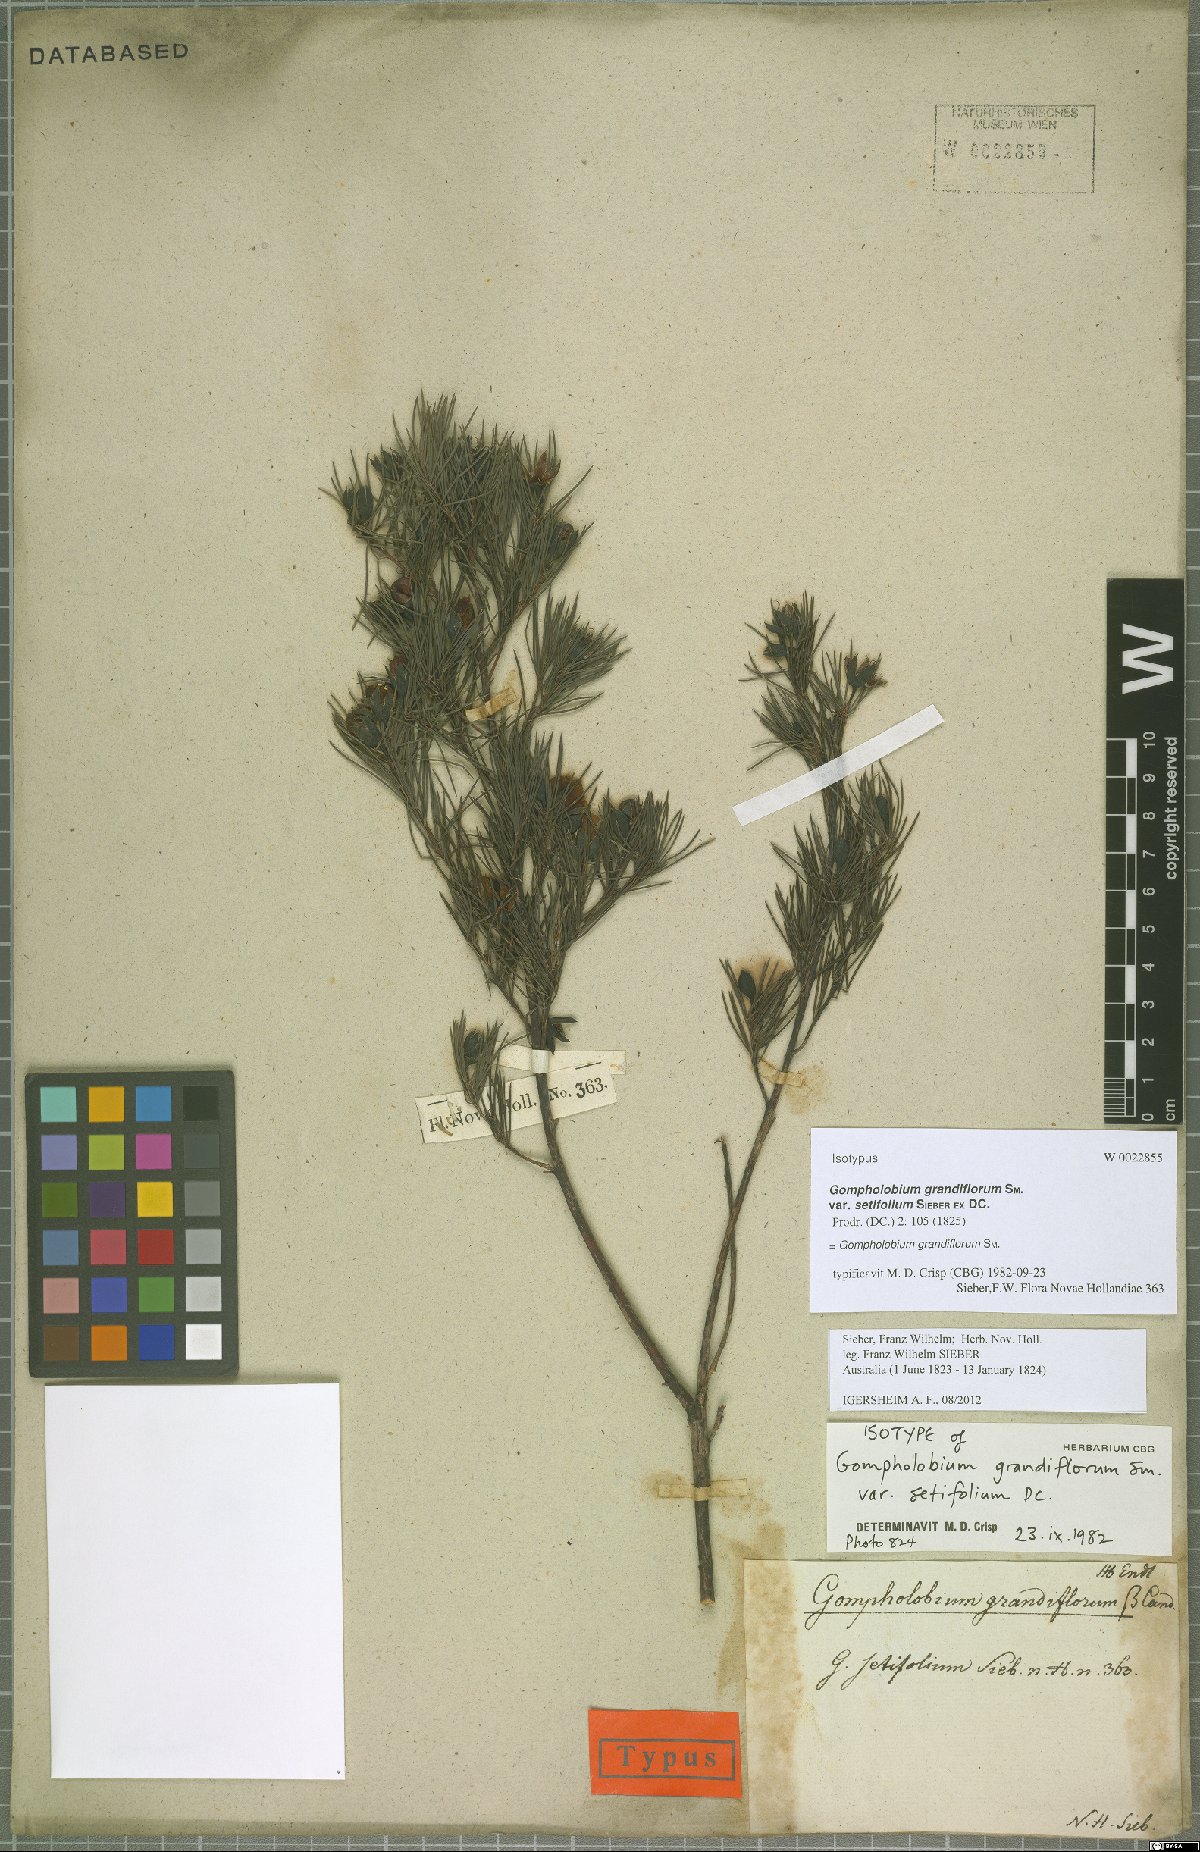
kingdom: Plantae
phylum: Tracheophyta
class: Magnoliopsida
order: Fabales
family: Fabaceae
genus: Gompholobium
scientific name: Gompholobium grandiflorum
